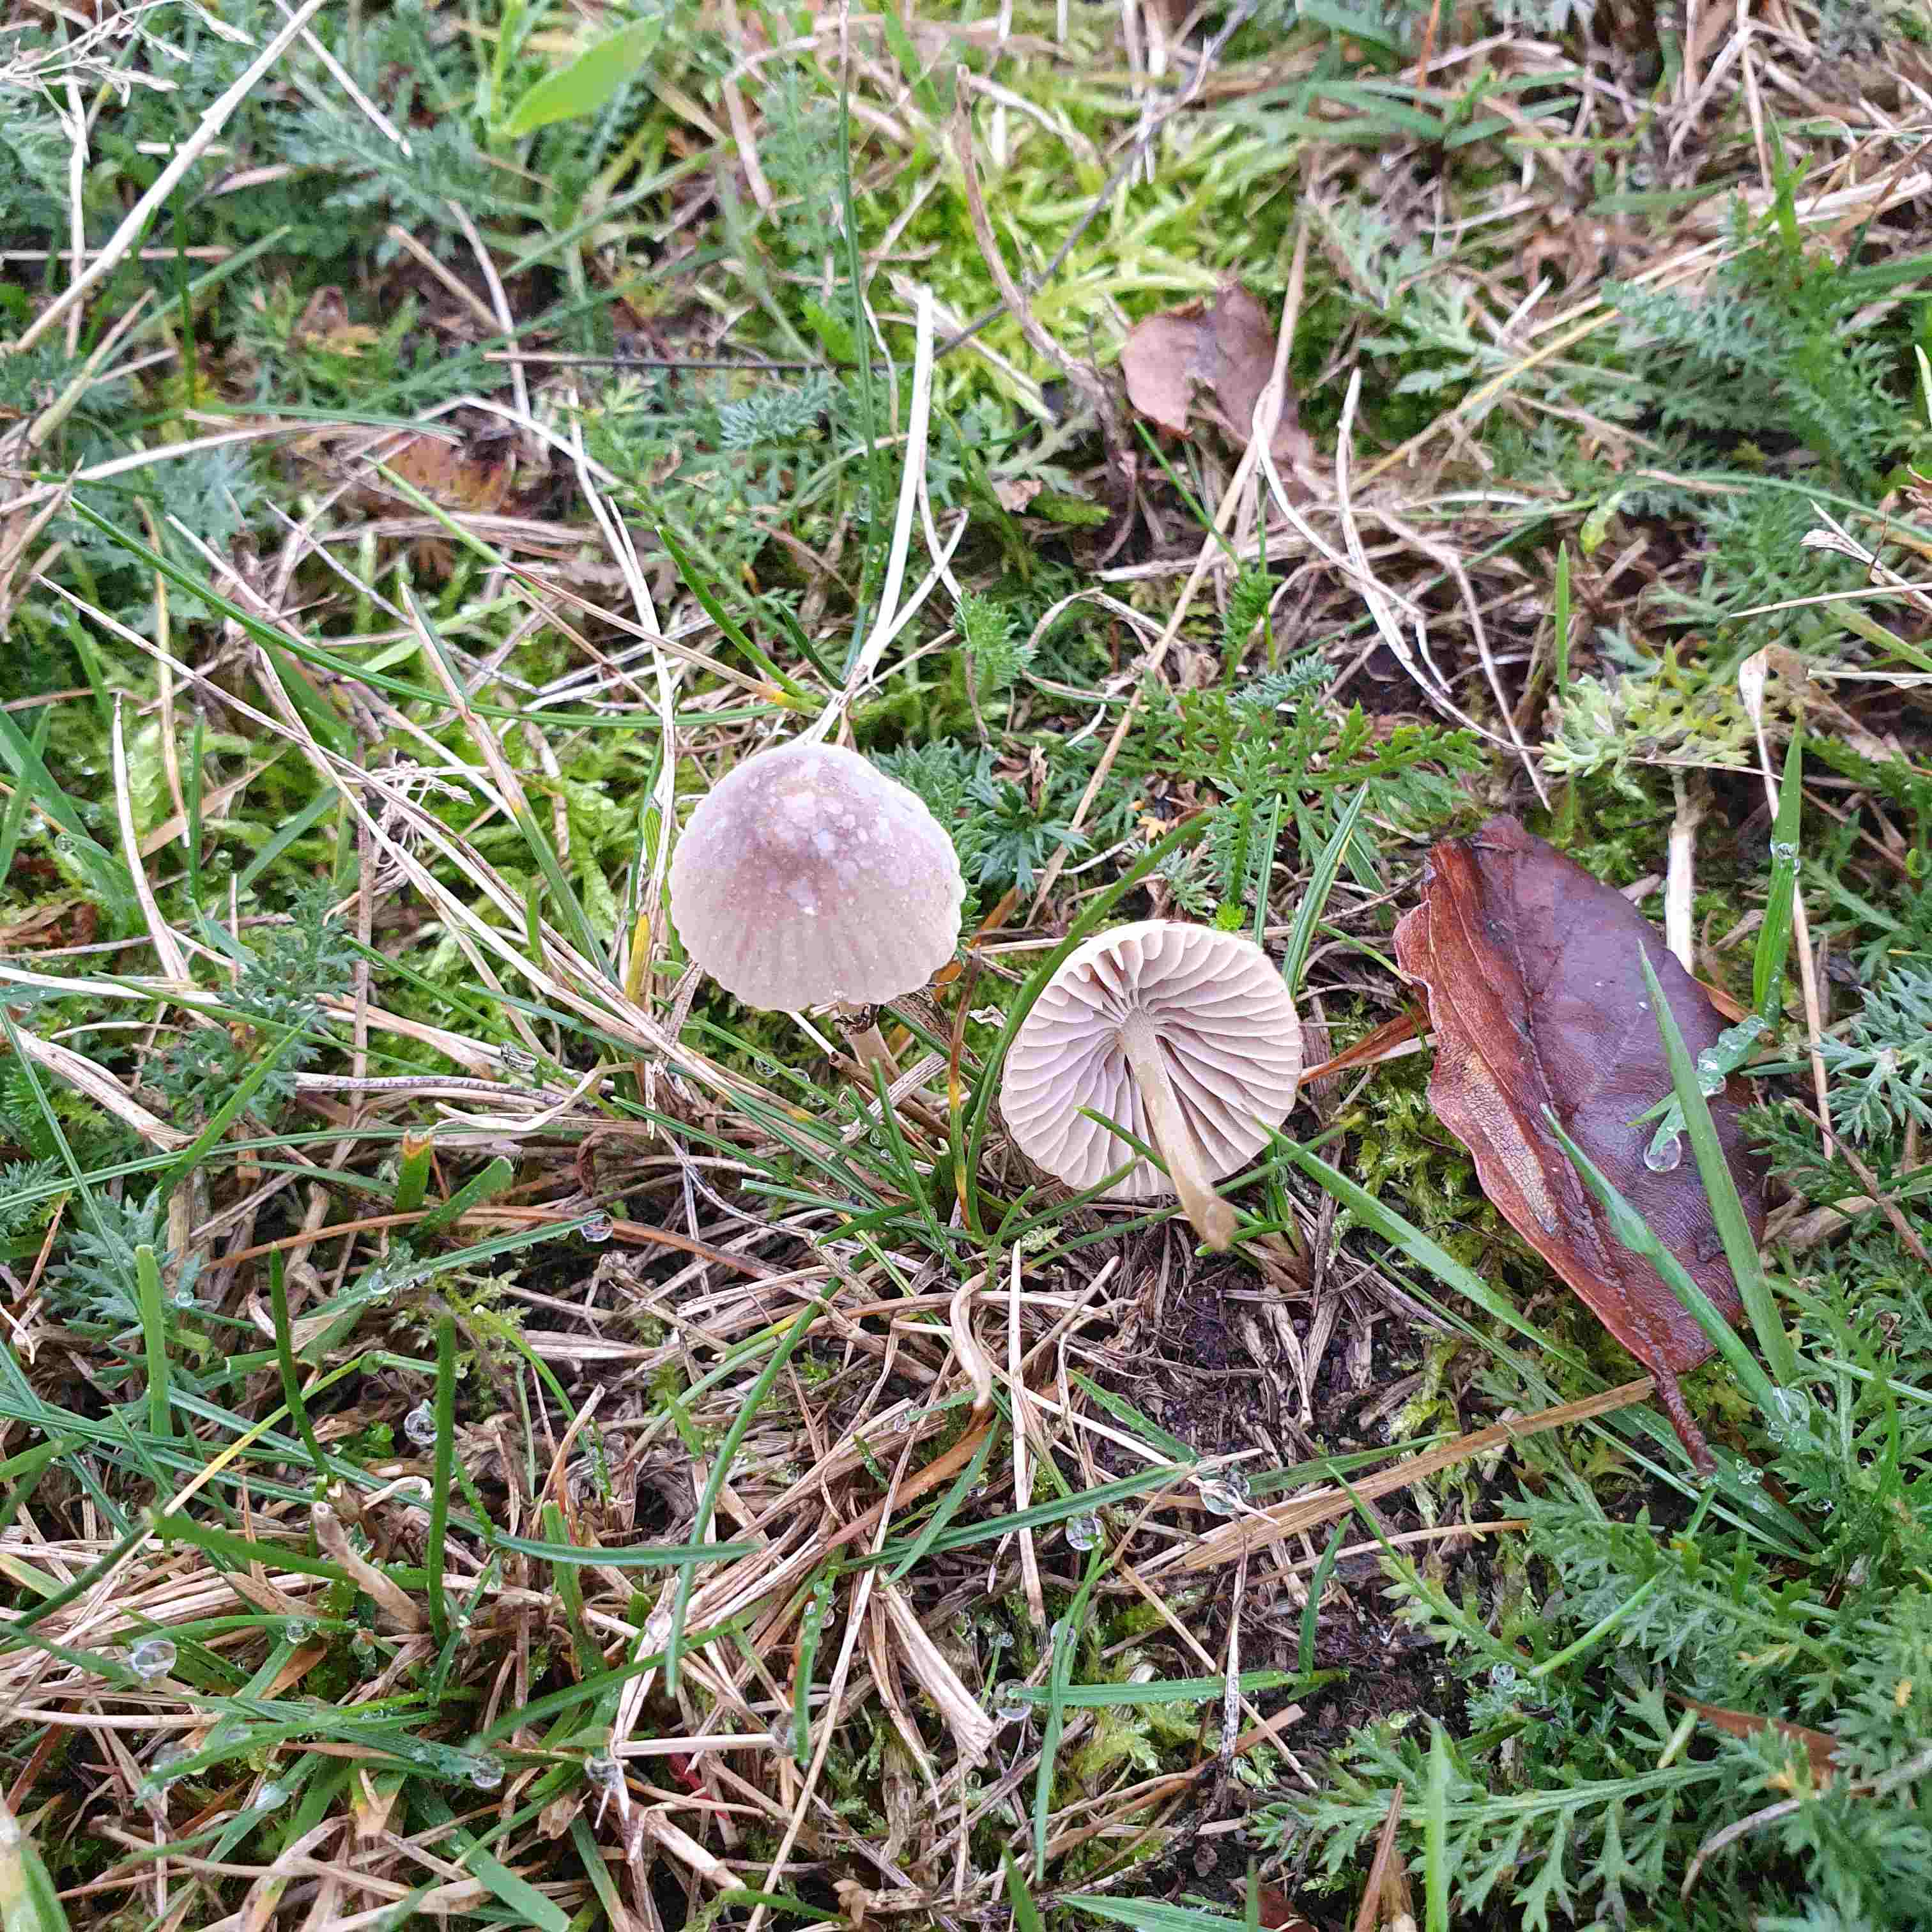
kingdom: Fungi
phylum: Basidiomycota
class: Agaricomycetes
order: Agaricales
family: Mycenaceae
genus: Mycena
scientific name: Mycena
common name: huesvamp
